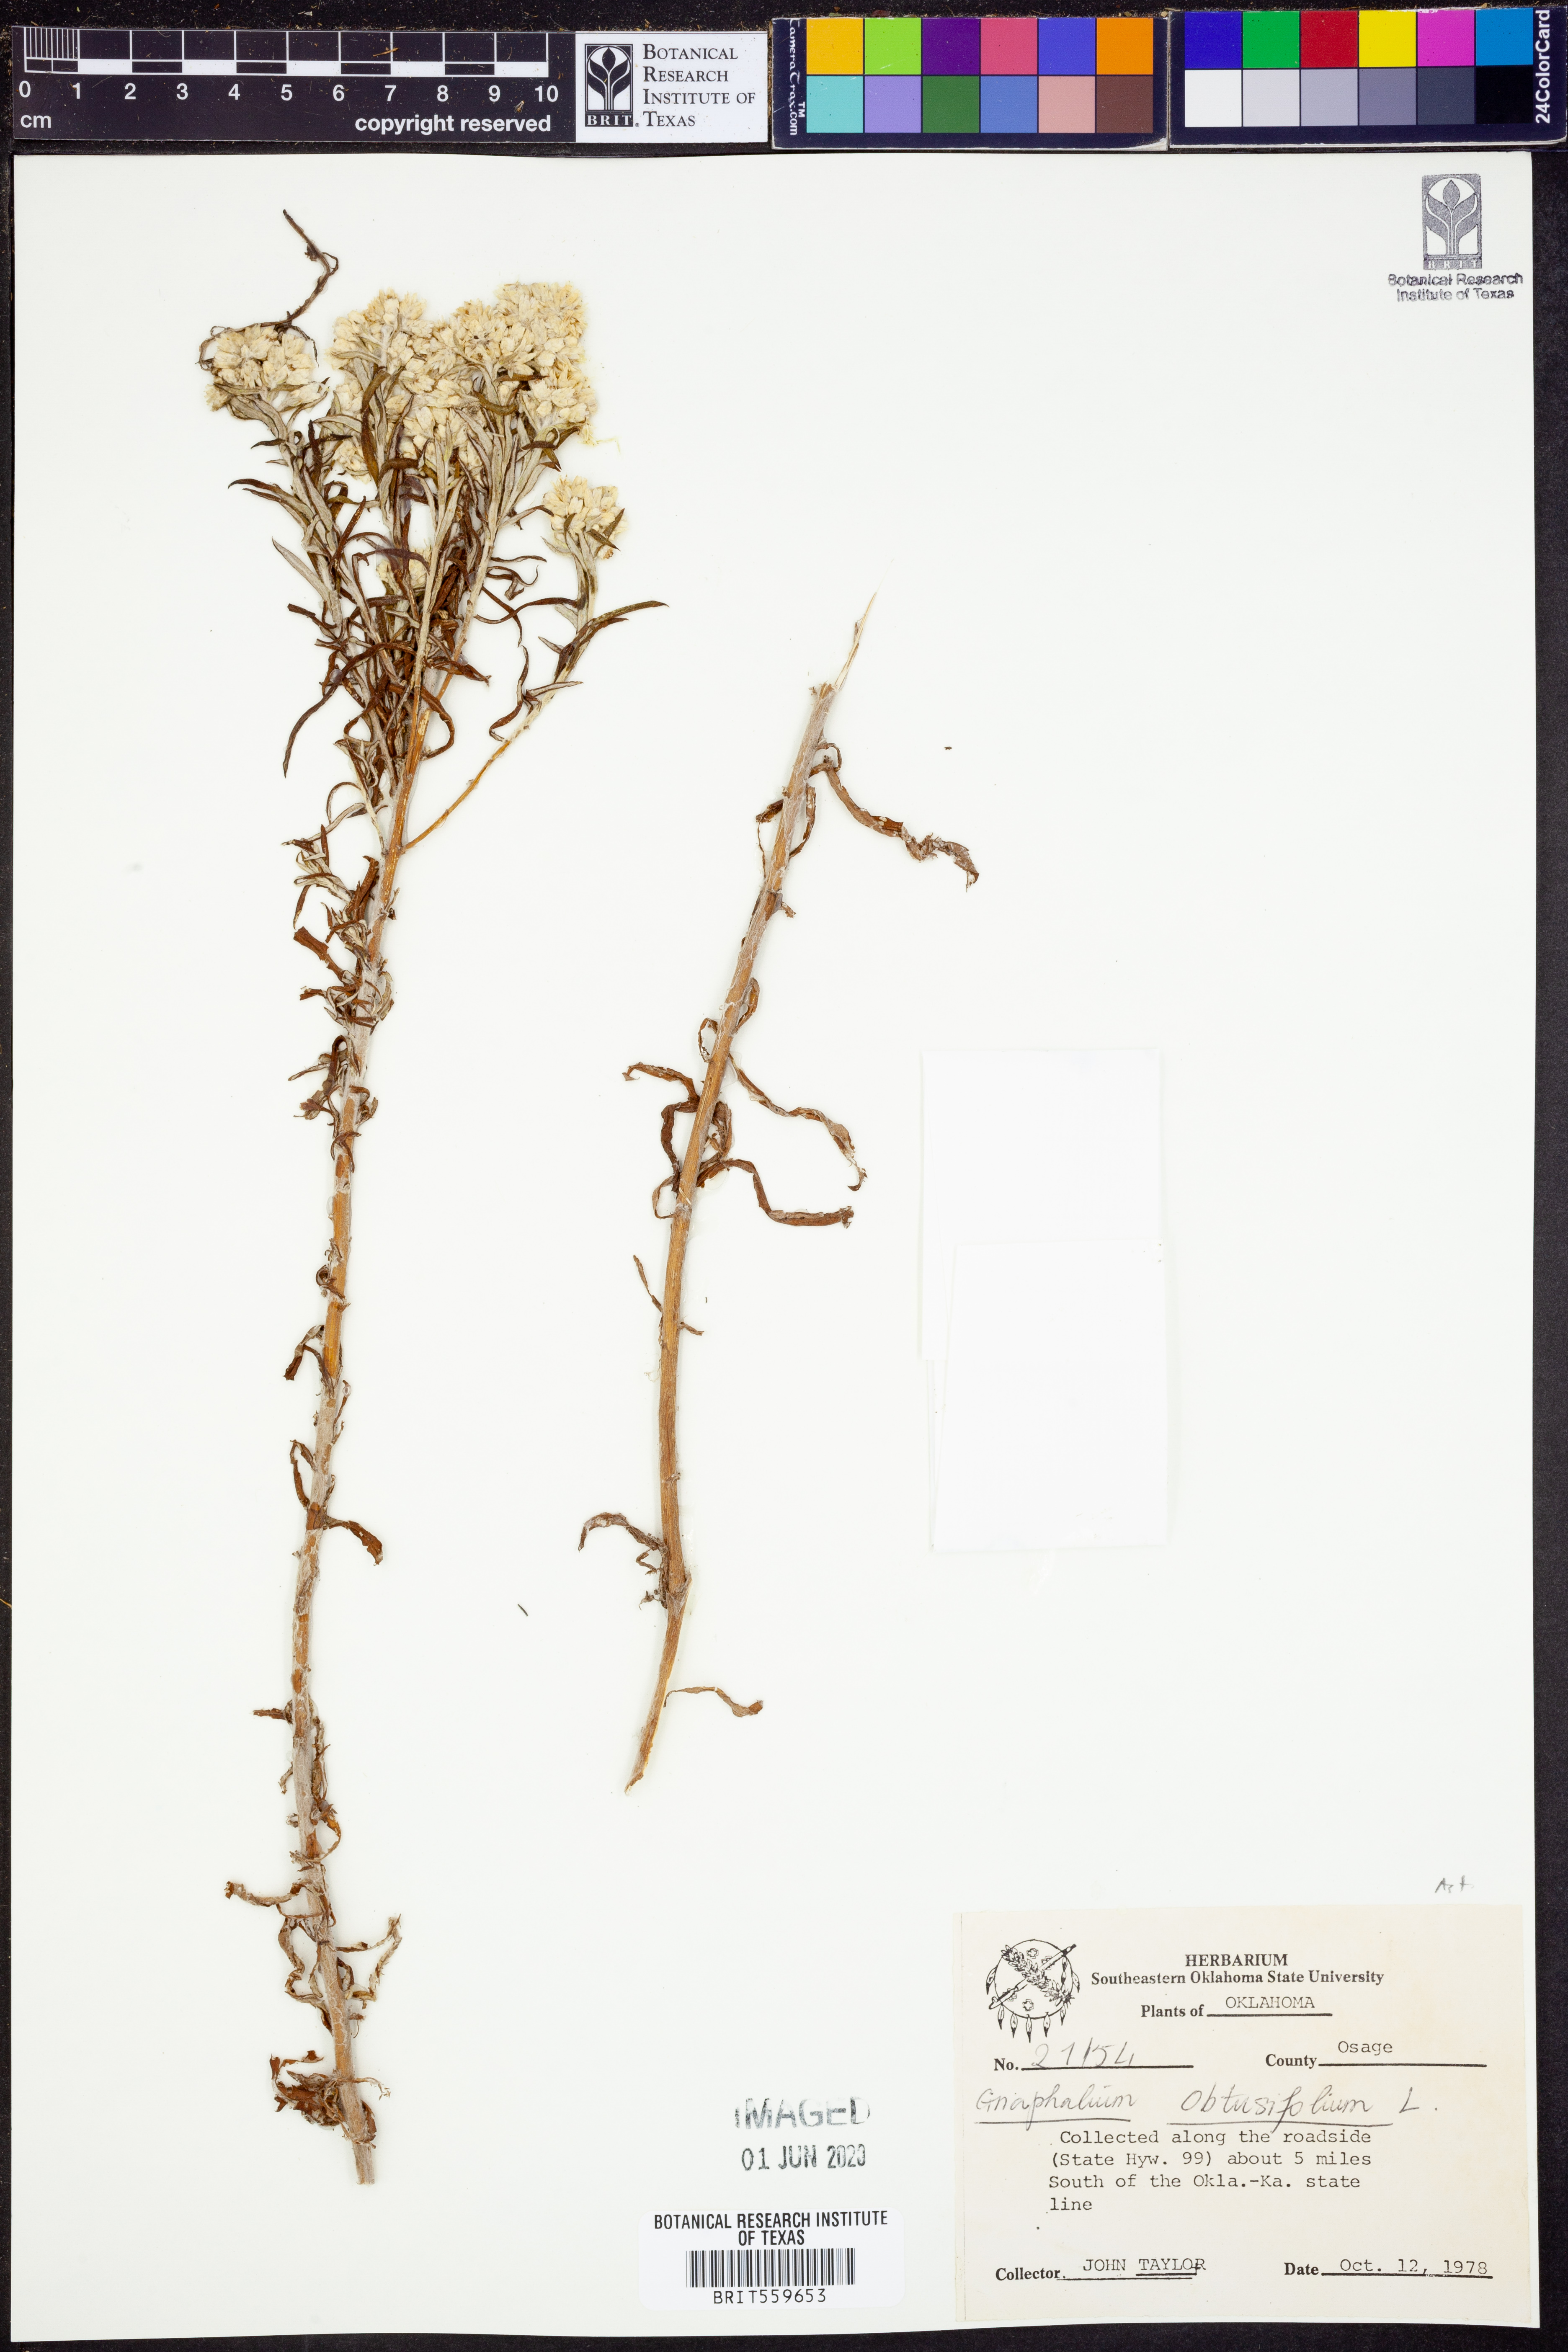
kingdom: Plantae
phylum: Tracheophyta
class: Magnoliopsida
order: Asterales
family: Asteraceae
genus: Pseudognaphalium
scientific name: Pseudognaphalium obtusifolium
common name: Eastern rabbit-tobacco
